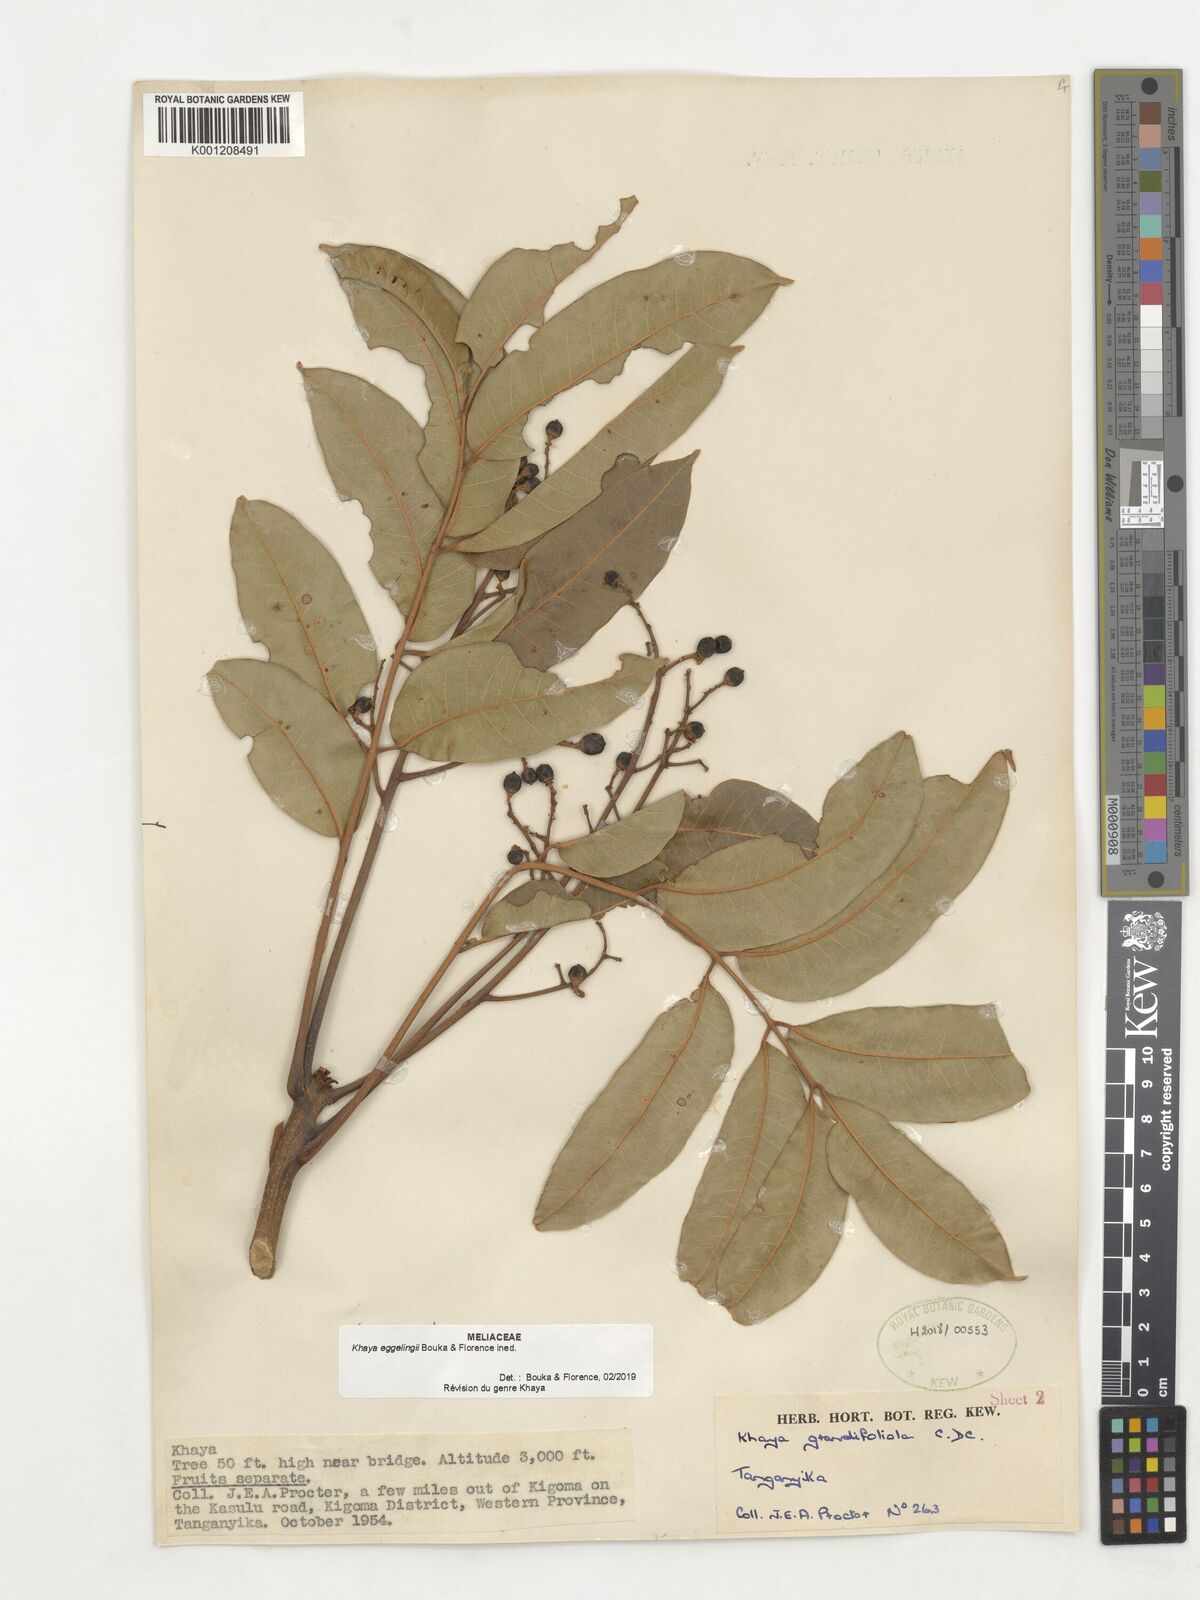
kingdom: Plantae
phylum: Tracheophyta
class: Magnoliopsida
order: Sapindales
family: Meliaceae
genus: Khaya
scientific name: Khaya
